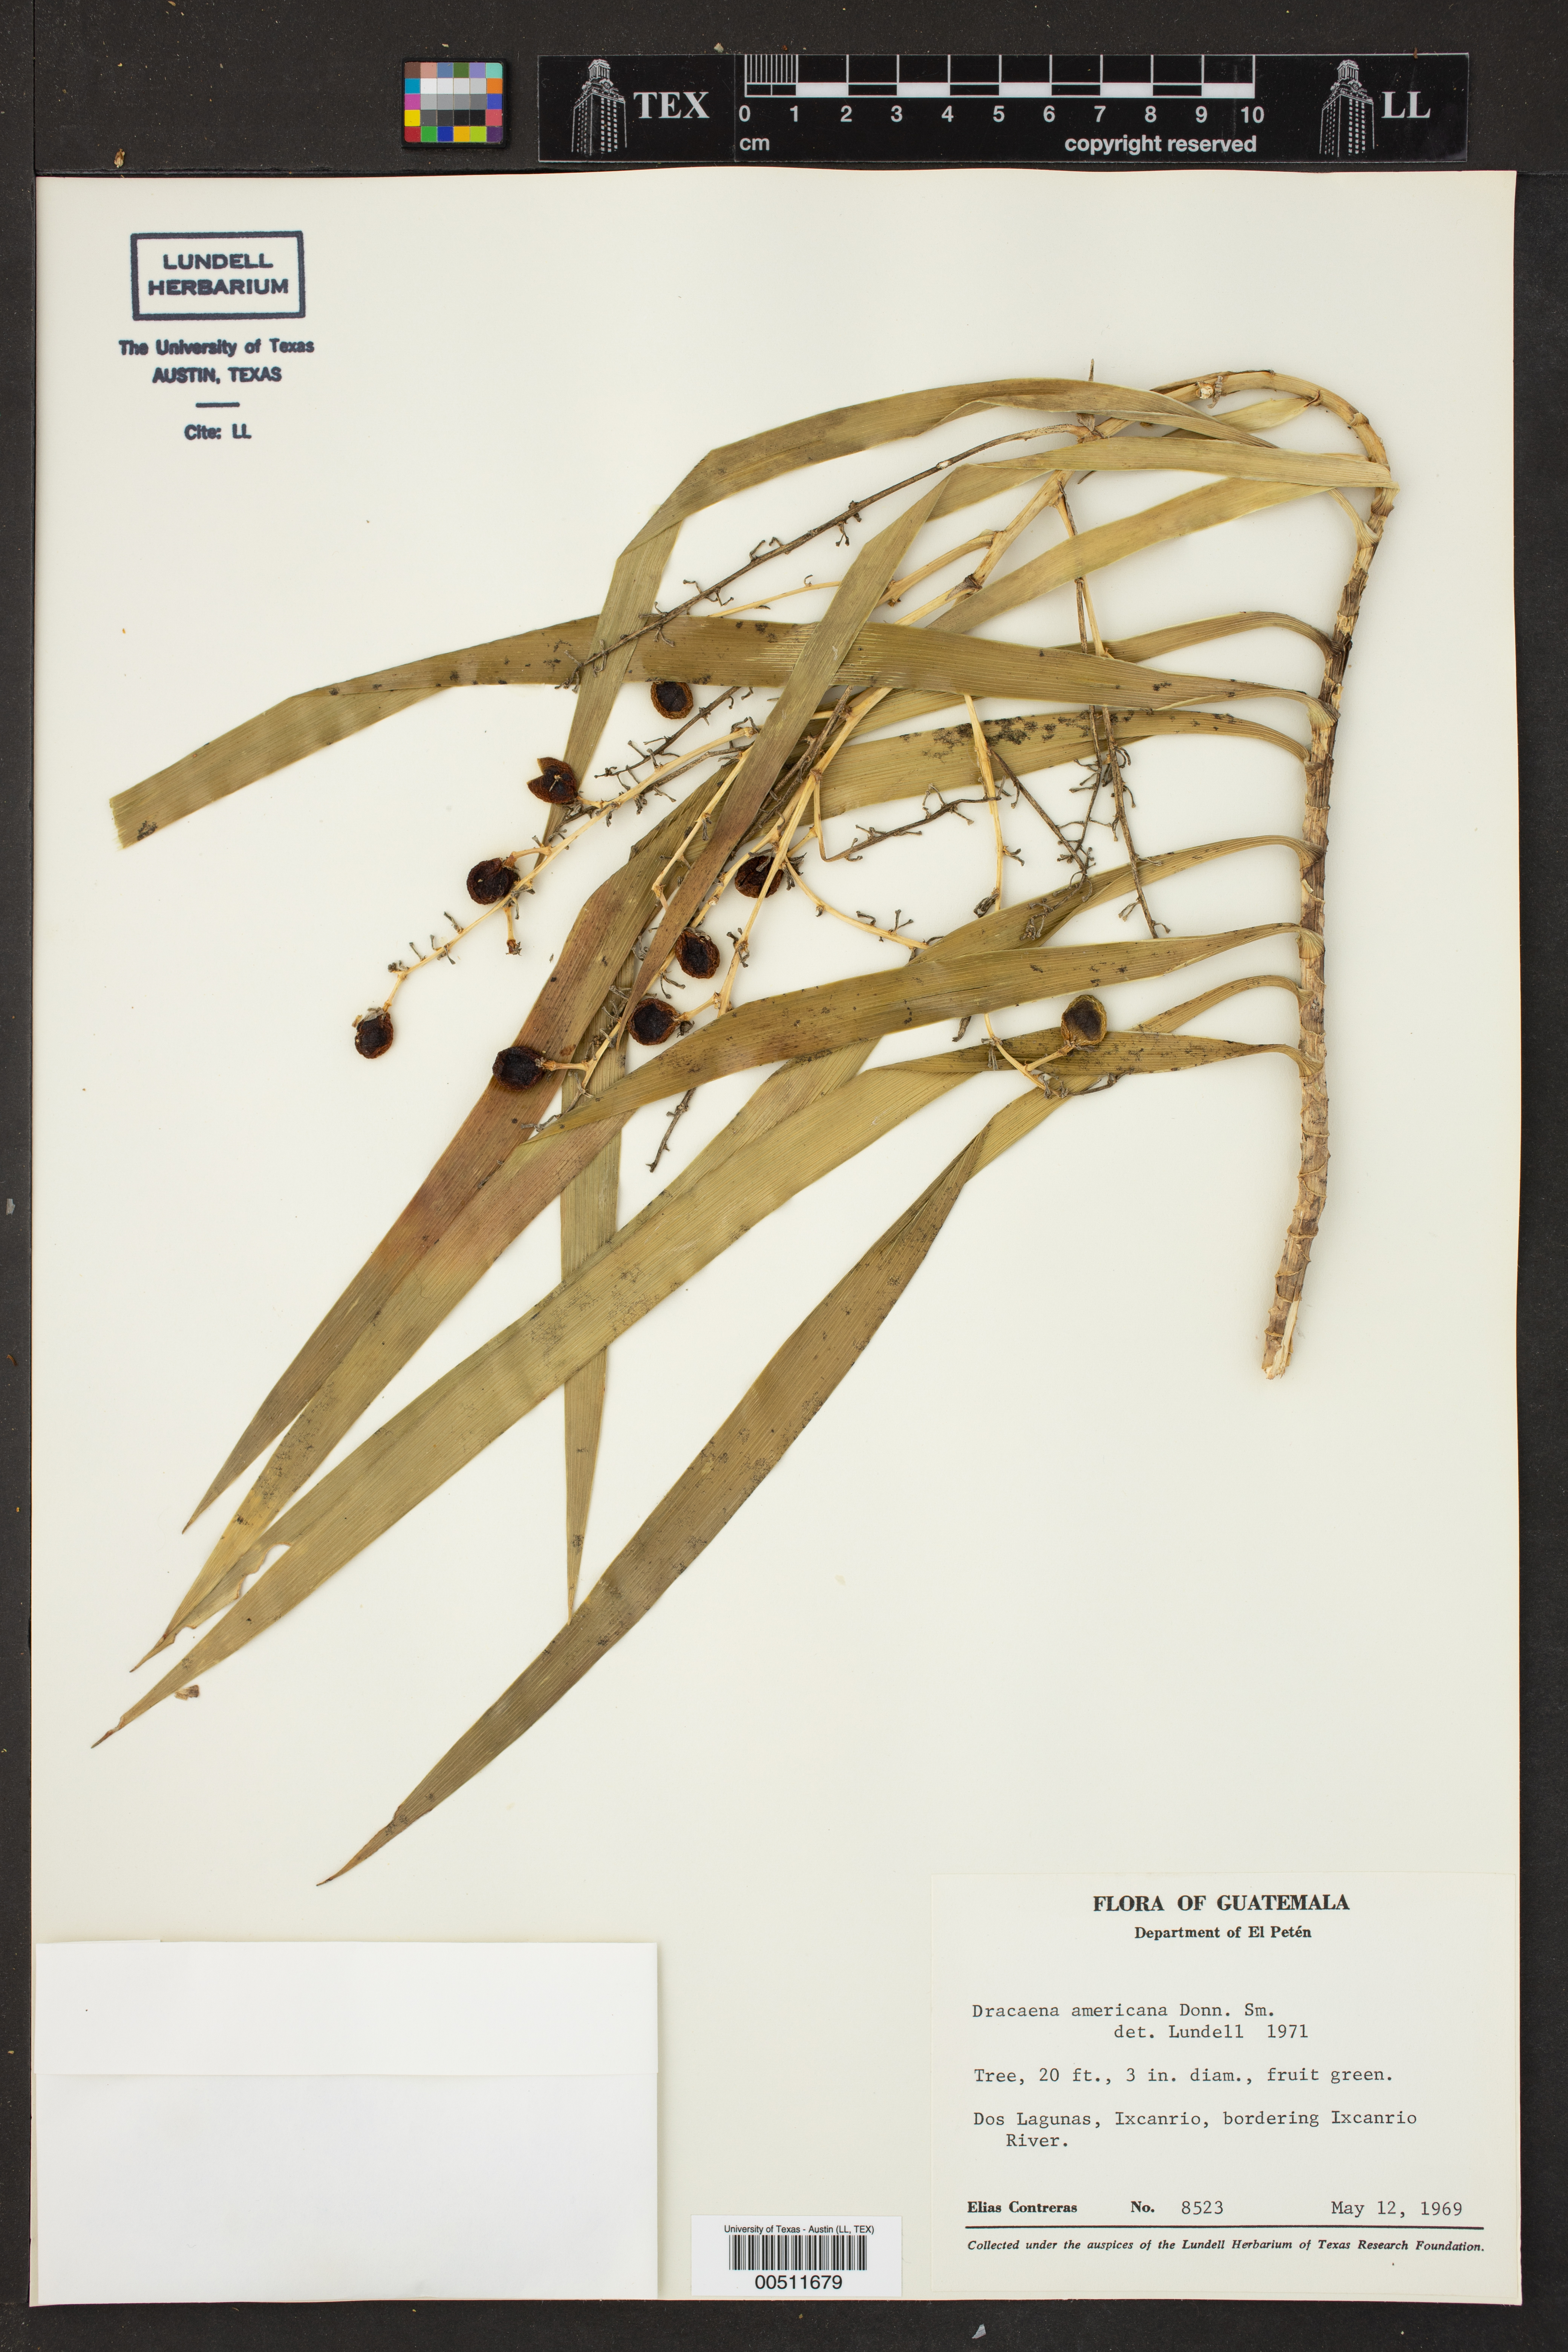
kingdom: Plantae
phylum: Tracheophyta
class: Liliopsida
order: Asparagales
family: Asparagaceae
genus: Dracaena
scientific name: Dracaena ghiesbreghtii
